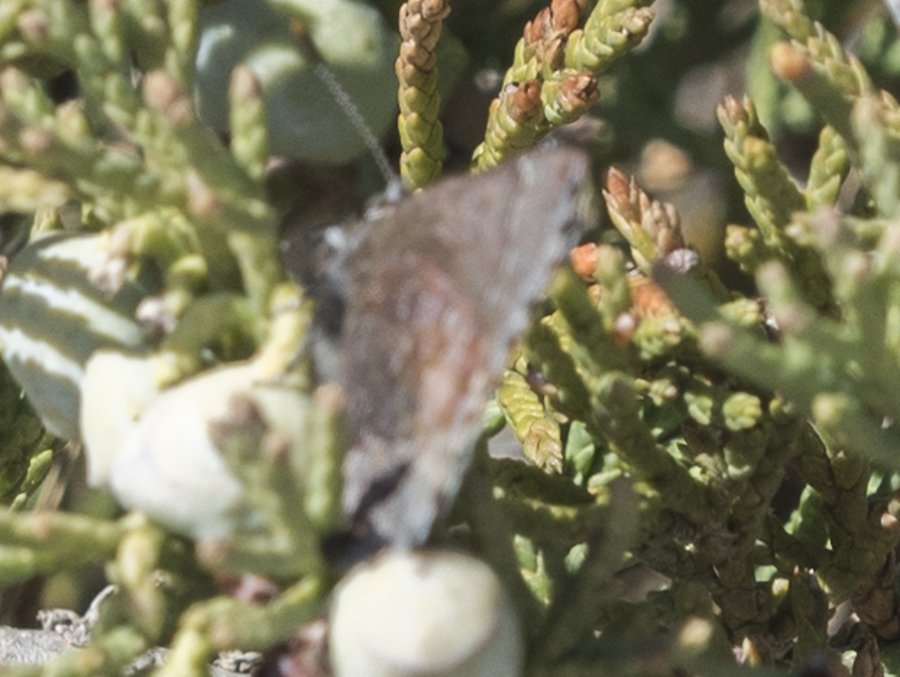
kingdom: Animalia
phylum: Arthropoda
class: Insecta
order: Lepidoptera
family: Lycaenidae
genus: Callophrys
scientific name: Callophrys polios
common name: Hoary Elfin
